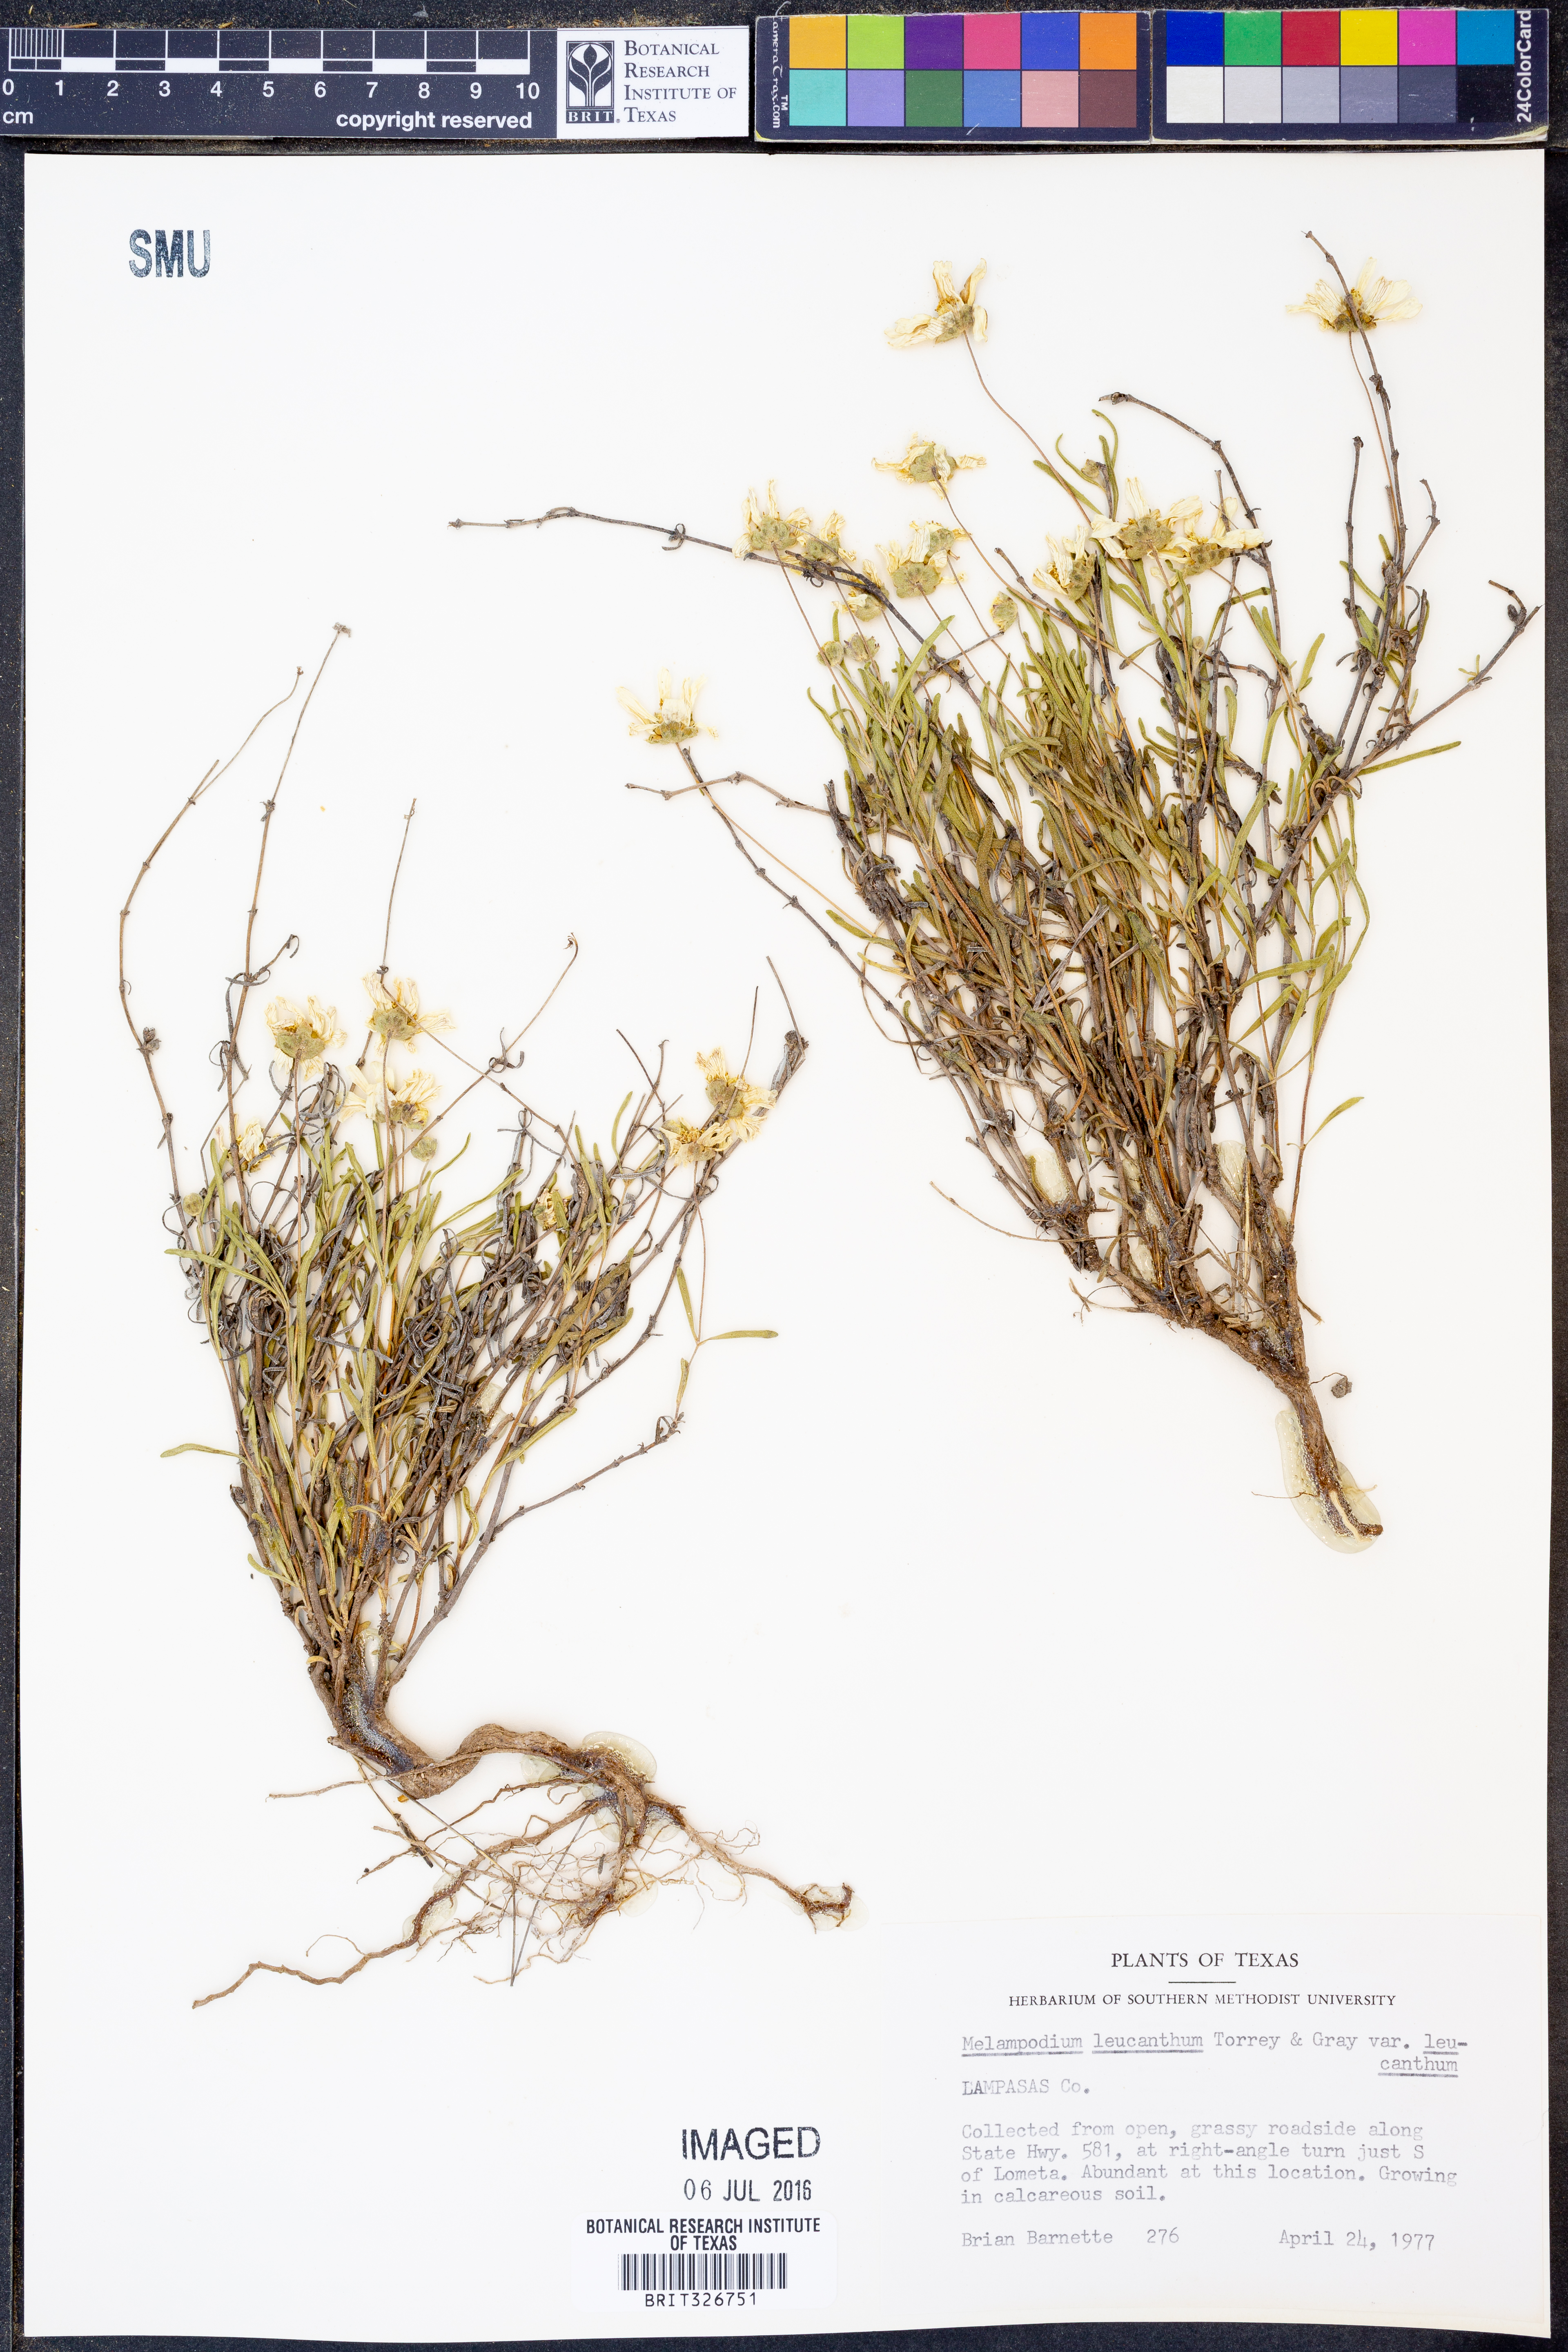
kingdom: Plantae
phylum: Tracheophyta
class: Magnoliopsida
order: Asterales
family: Asteraceae
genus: Melampodium
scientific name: Melampodium leucanthum
